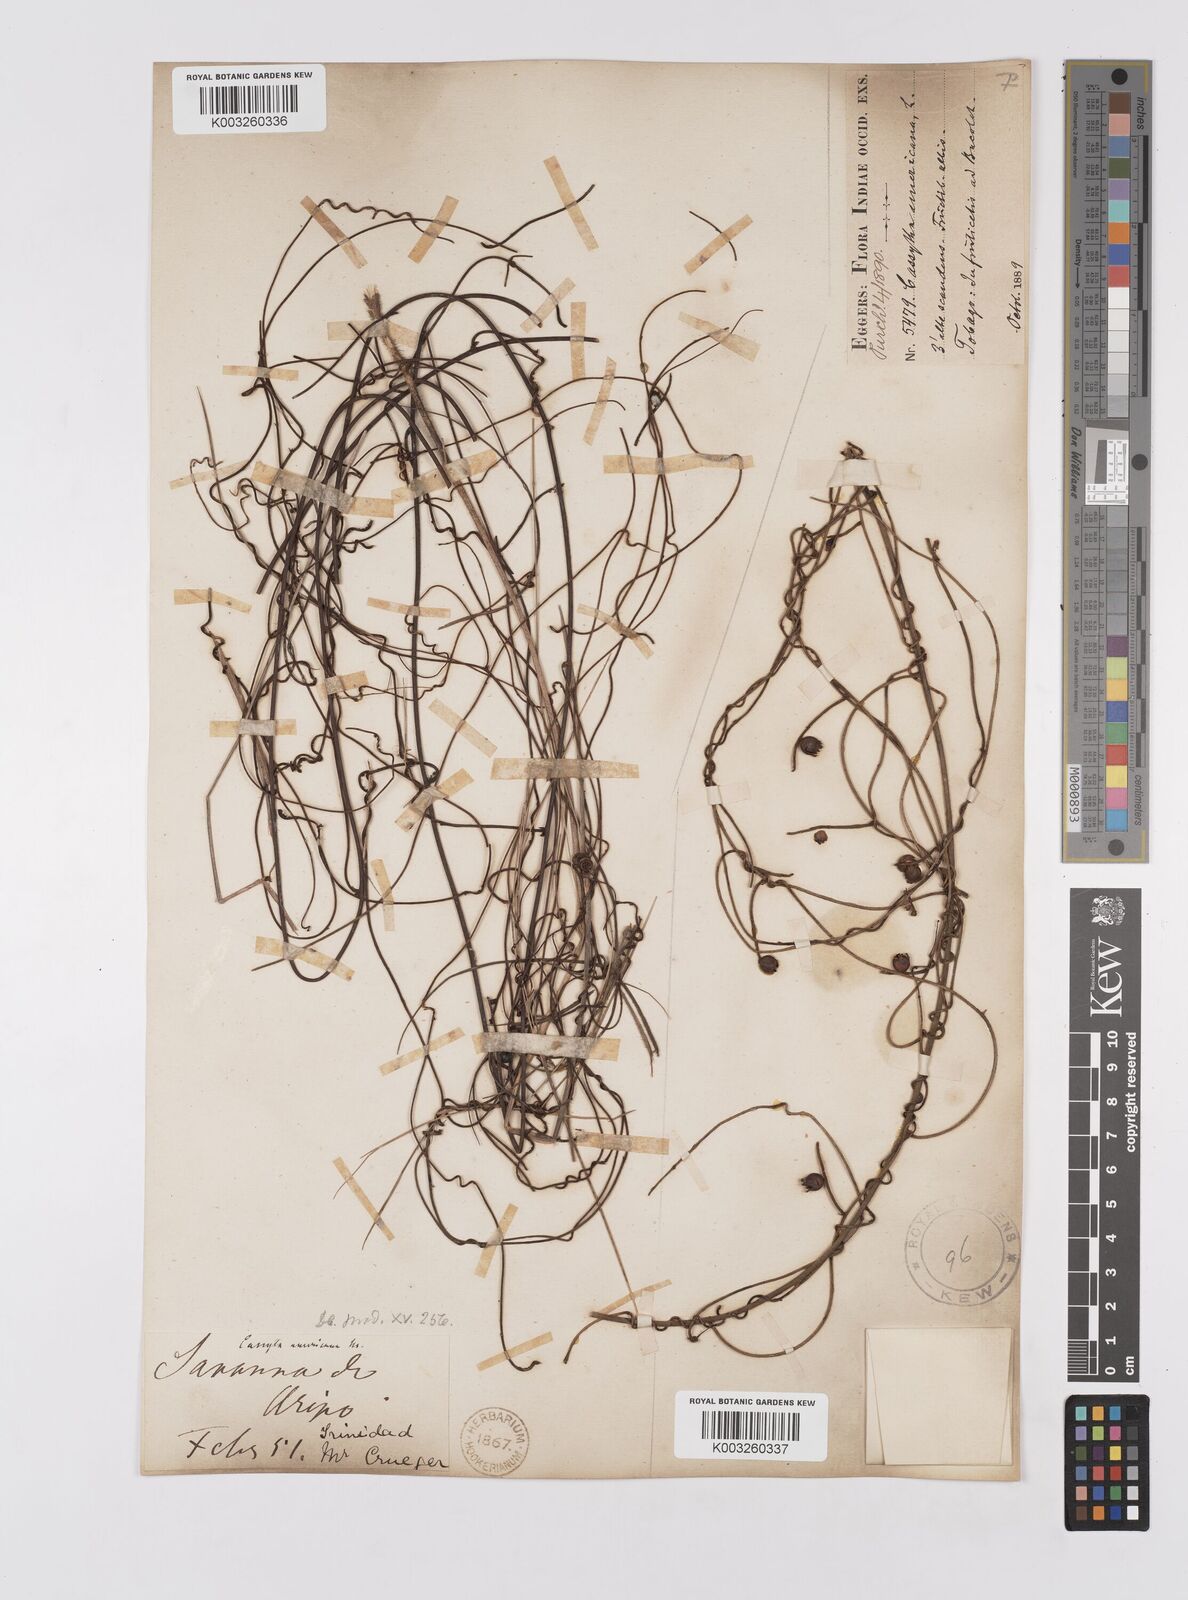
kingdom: Plantae
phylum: Tracheophyta
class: Magnoliopsida
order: Laurales
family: Lauraceae
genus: Cassytha
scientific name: Cassytha filiformis
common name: Dodder-laurel
